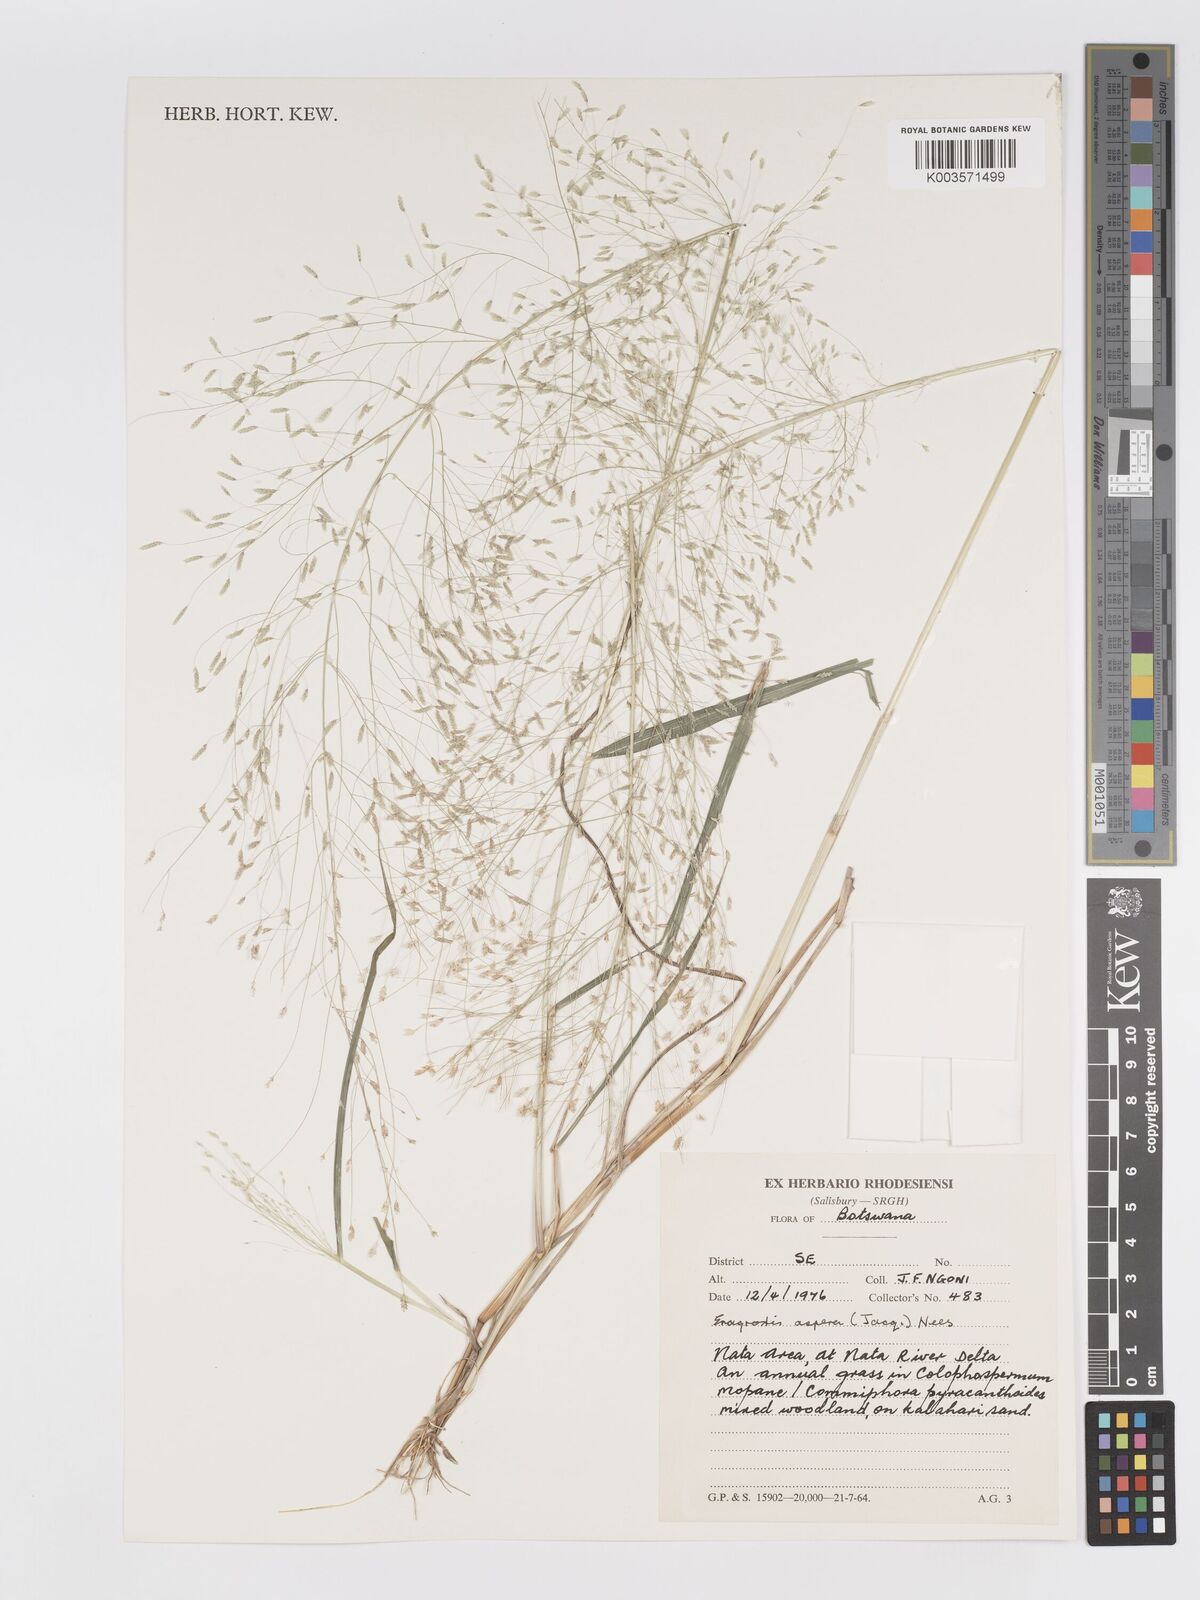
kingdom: Plantae
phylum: Tracheophyta
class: Liliopsida
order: Poales
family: Poaceae
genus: Eragrostis
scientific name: Eragrostis aspera
